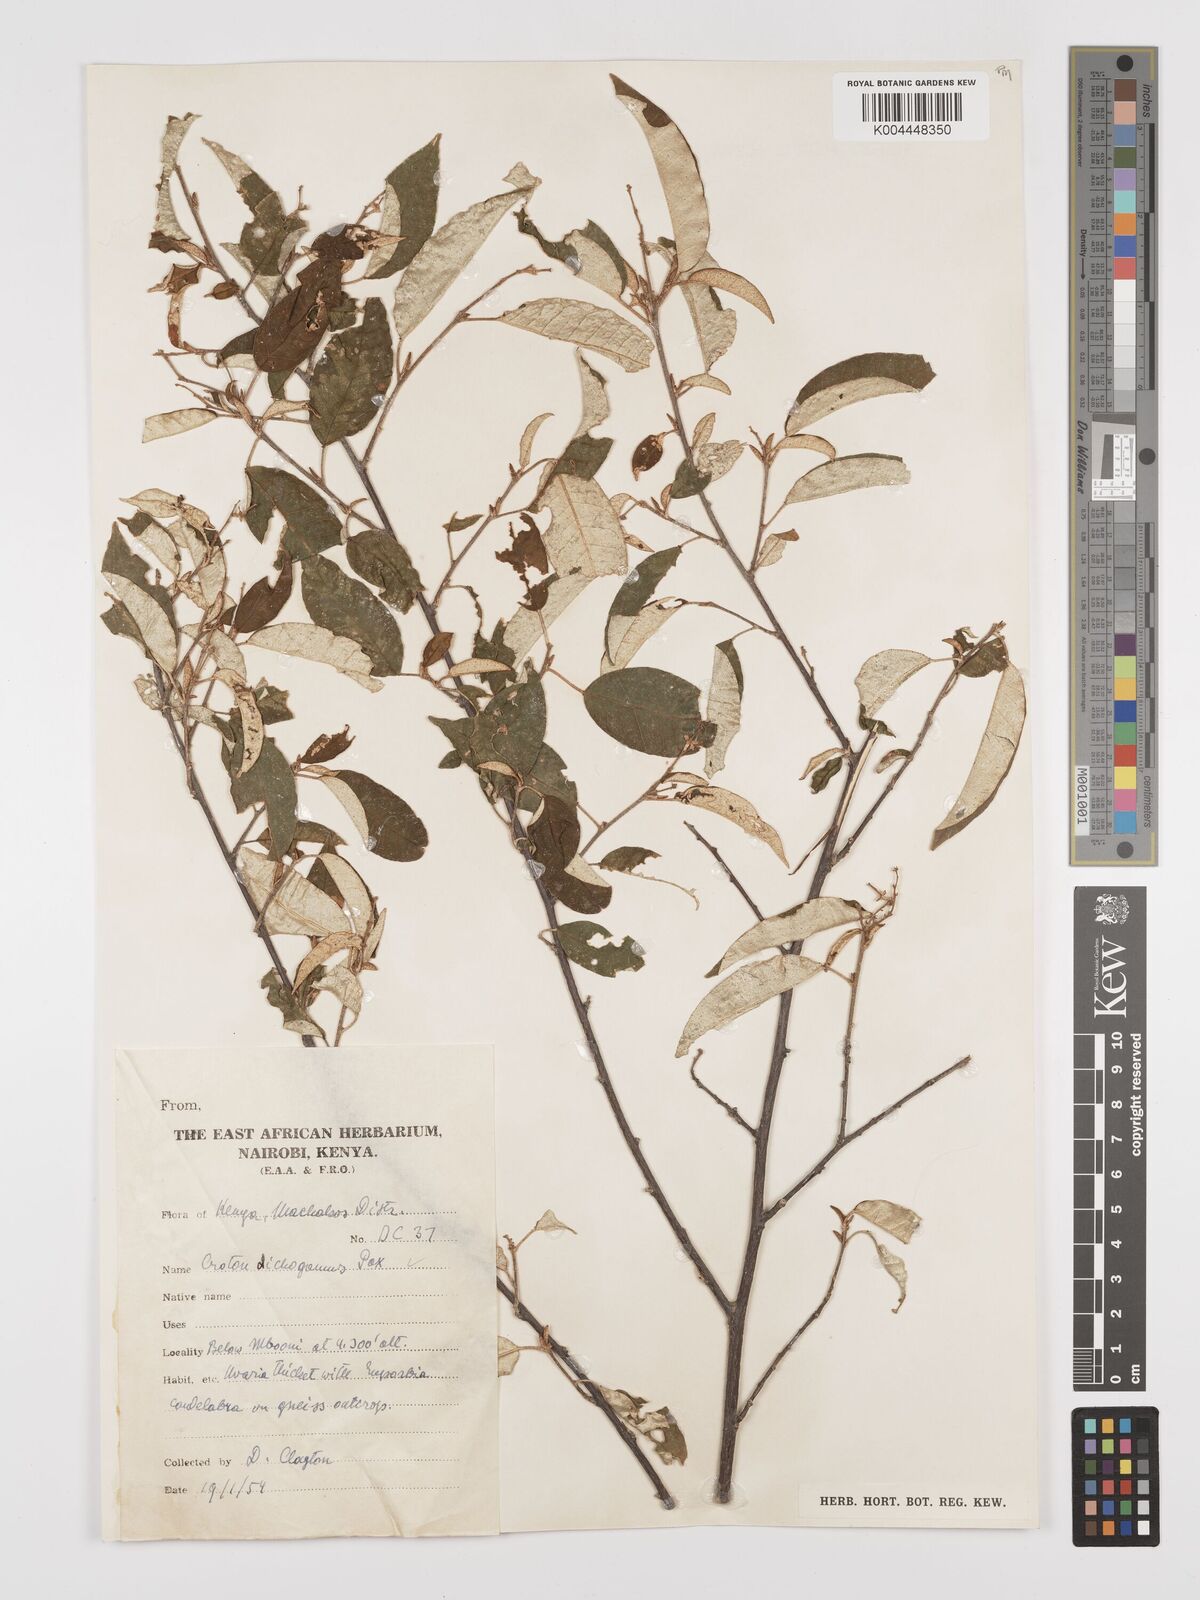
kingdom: Plantae
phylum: Tracheophyta
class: Magnoliopsida
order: Malpighiales
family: Euphorbiaceae
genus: Croton
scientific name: Croton dichogamus
